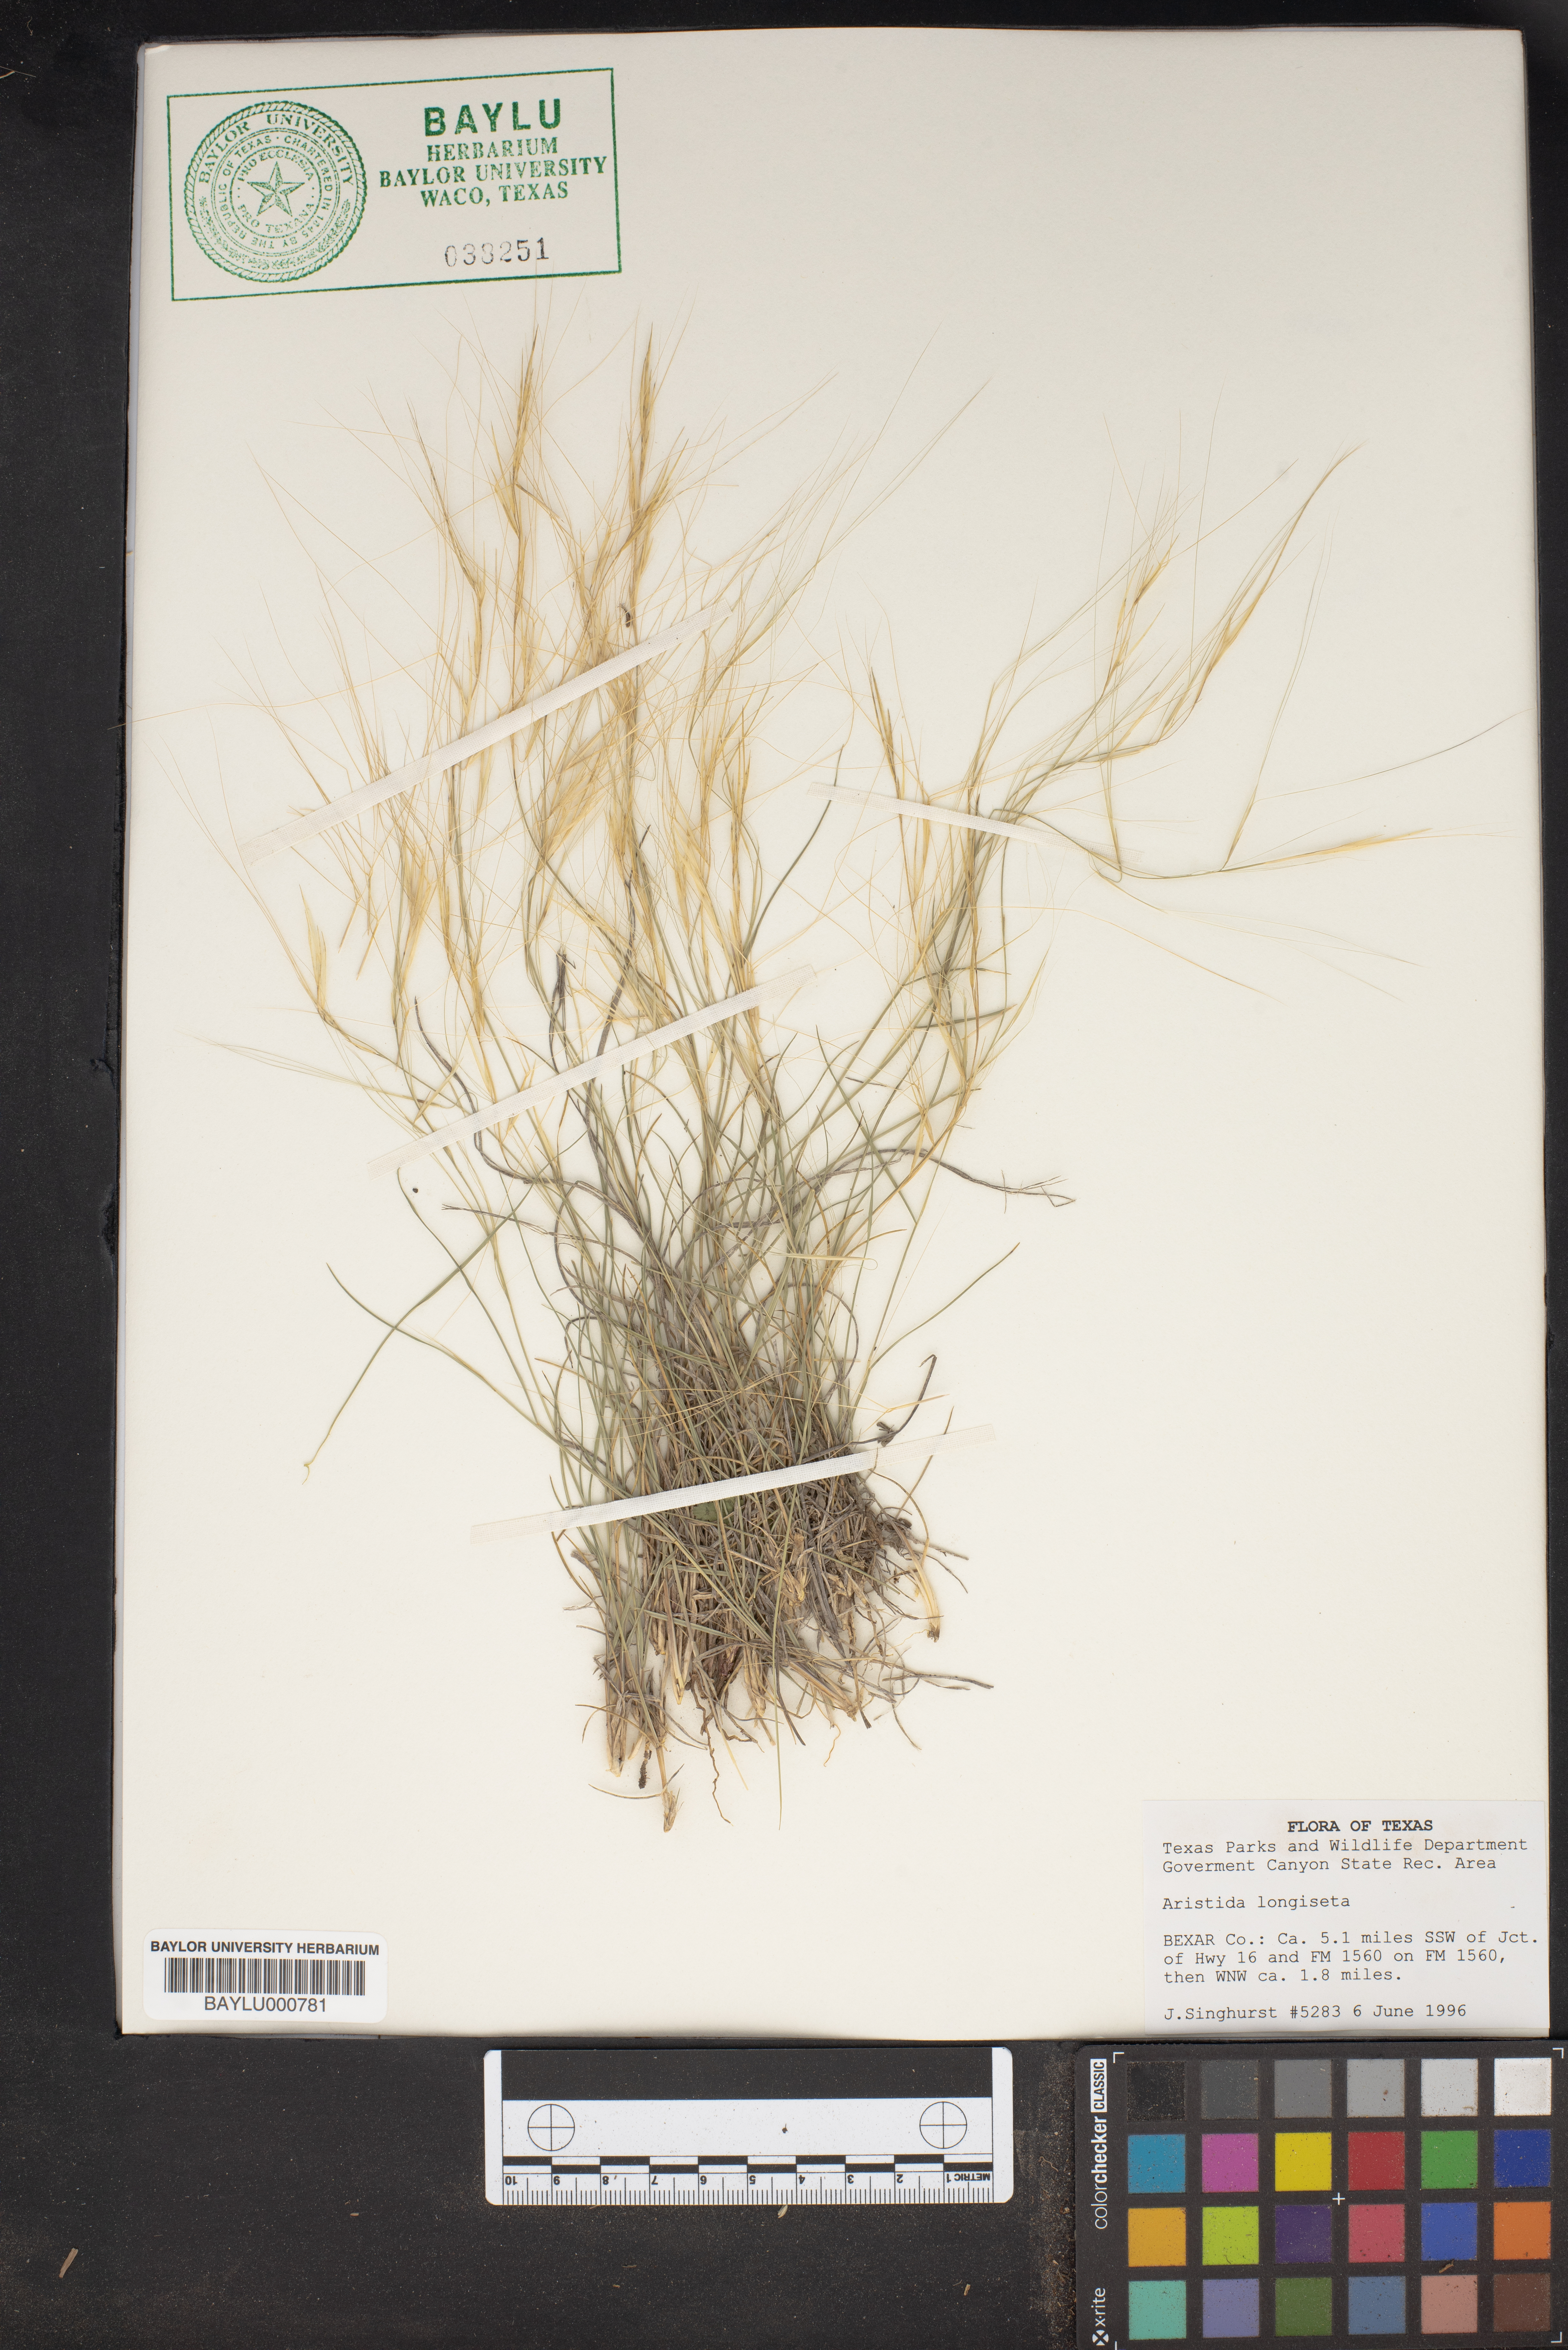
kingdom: Plantae
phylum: Tracheophyta
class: Liliopsida
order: Poales
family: Poaceae
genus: Aristida
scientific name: Aristida longiseta
